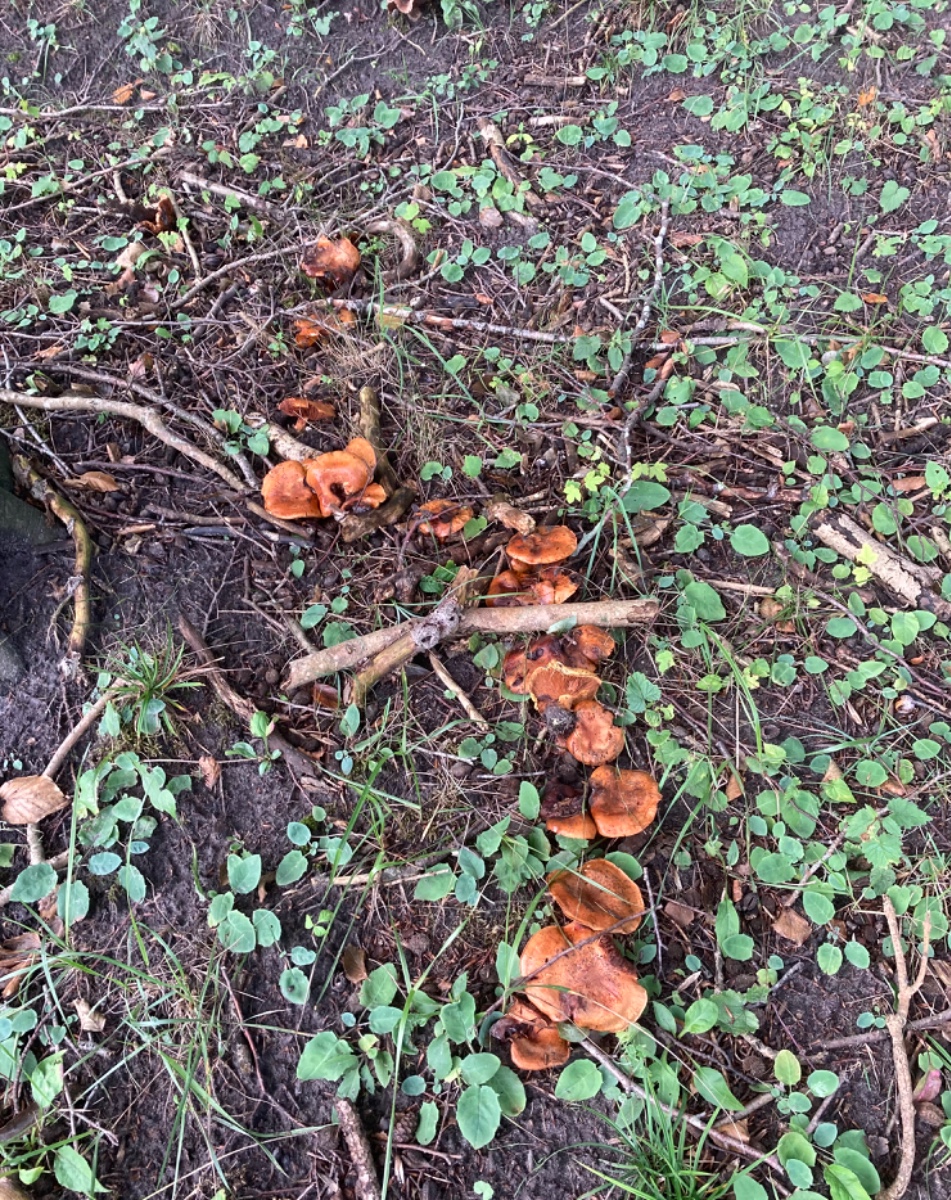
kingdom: Fungi
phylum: Basidiomycota
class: Agaricomycetes
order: Agaricales
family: Tricholomataceae
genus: Tricholoma
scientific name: Tricholoma aurantium
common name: orangegul ridderhat
